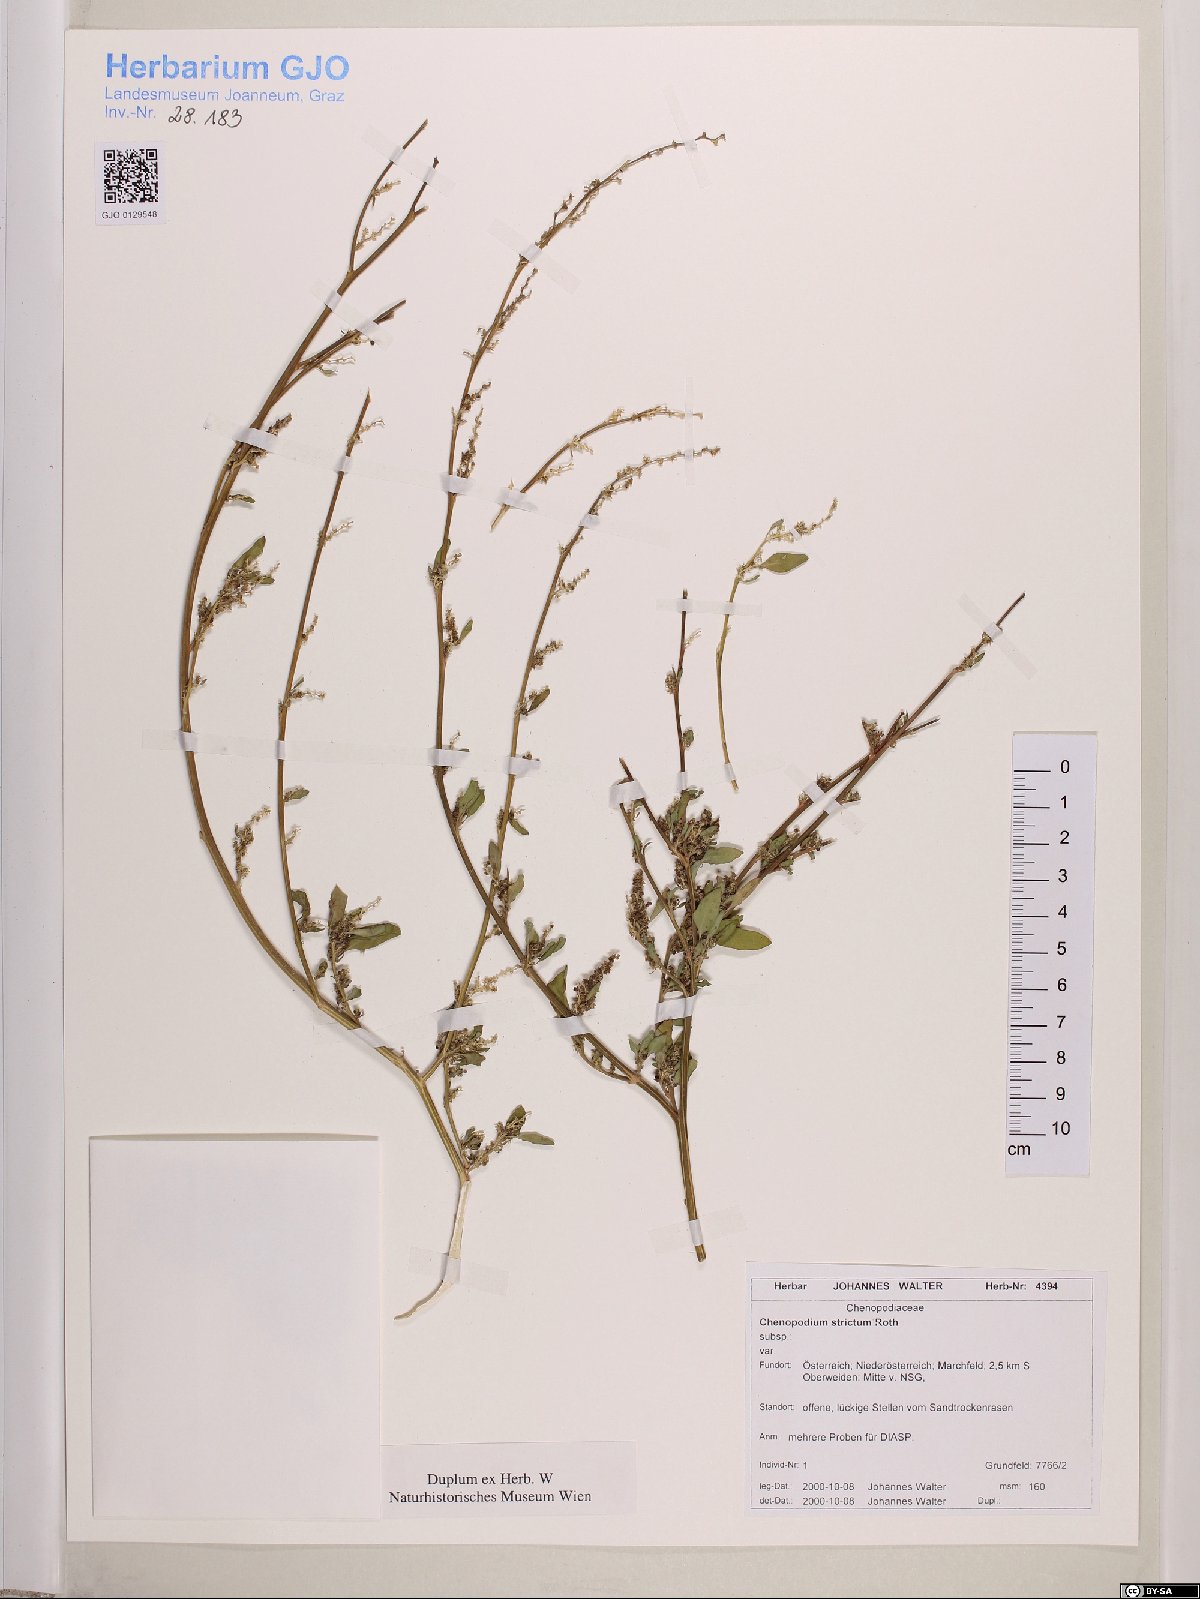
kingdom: Plantae
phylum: Tracheophyta
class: Magnoliopsida
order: Caryophyllales
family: Amaranthaceae
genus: Chenopodium
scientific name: Chenopodium album
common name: Fat-hen
